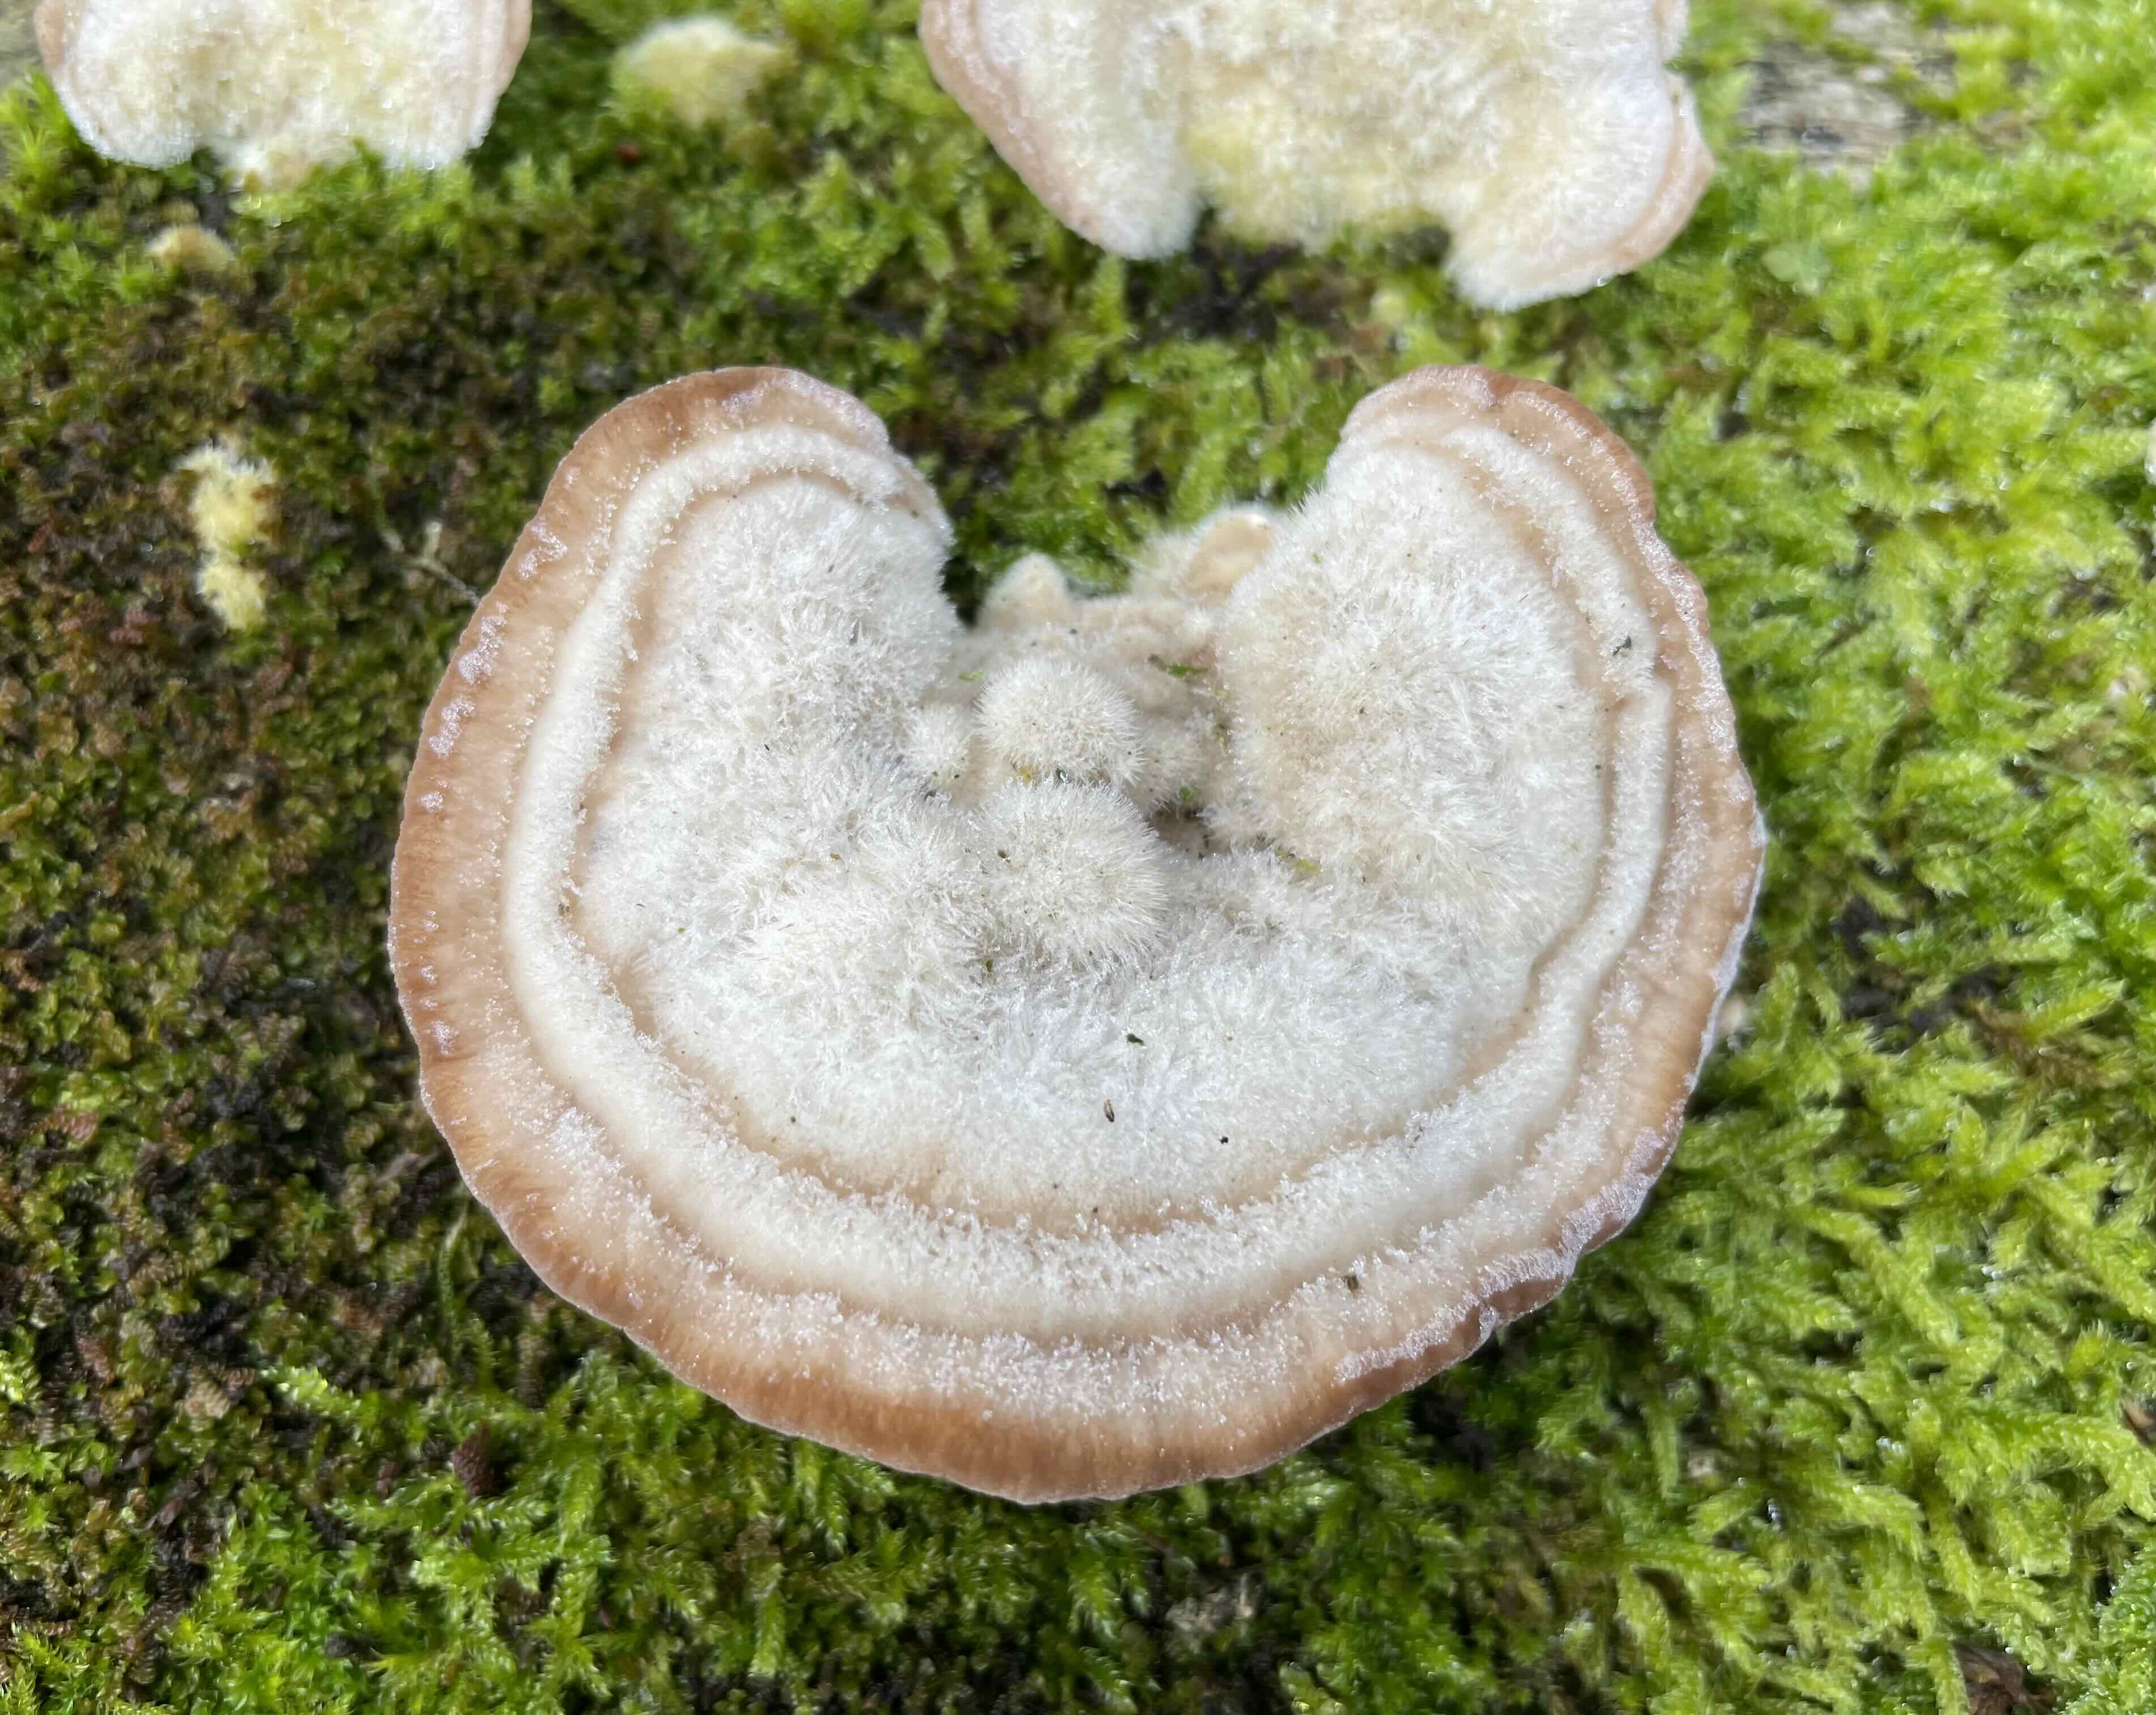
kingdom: Fungi
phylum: Basidiomycota
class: Agaricomycetes
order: Polyporales
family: Polyporaceae
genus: Trametes
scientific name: Trametes hirsuta
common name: håret læderporesvamp
